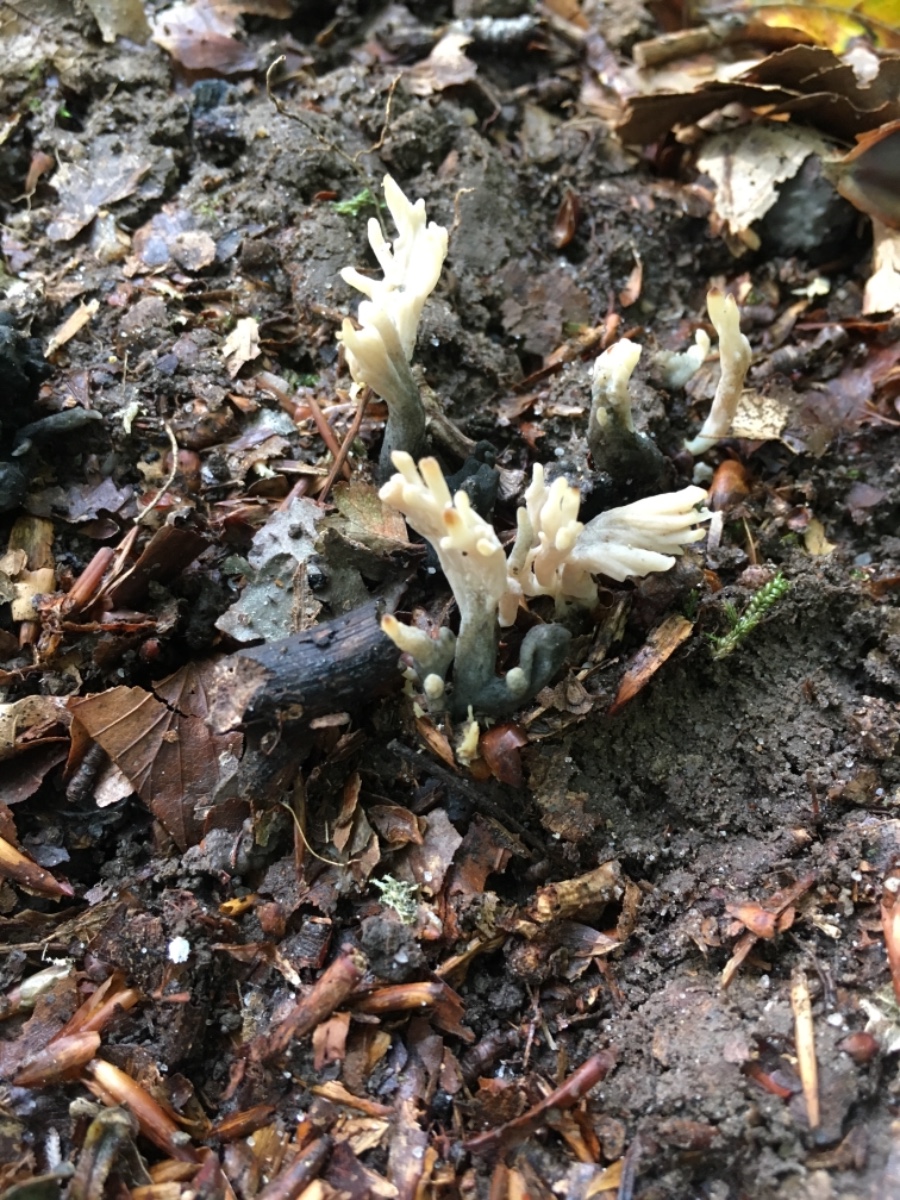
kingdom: Fungi
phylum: Ascomycota
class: Sordariomycetes
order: Sordariales
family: Helminthosphaeriaceae
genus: Helminthosphaeria
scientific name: Helminthosphaeria clavariarum
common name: trold-svampesnyltekerne
